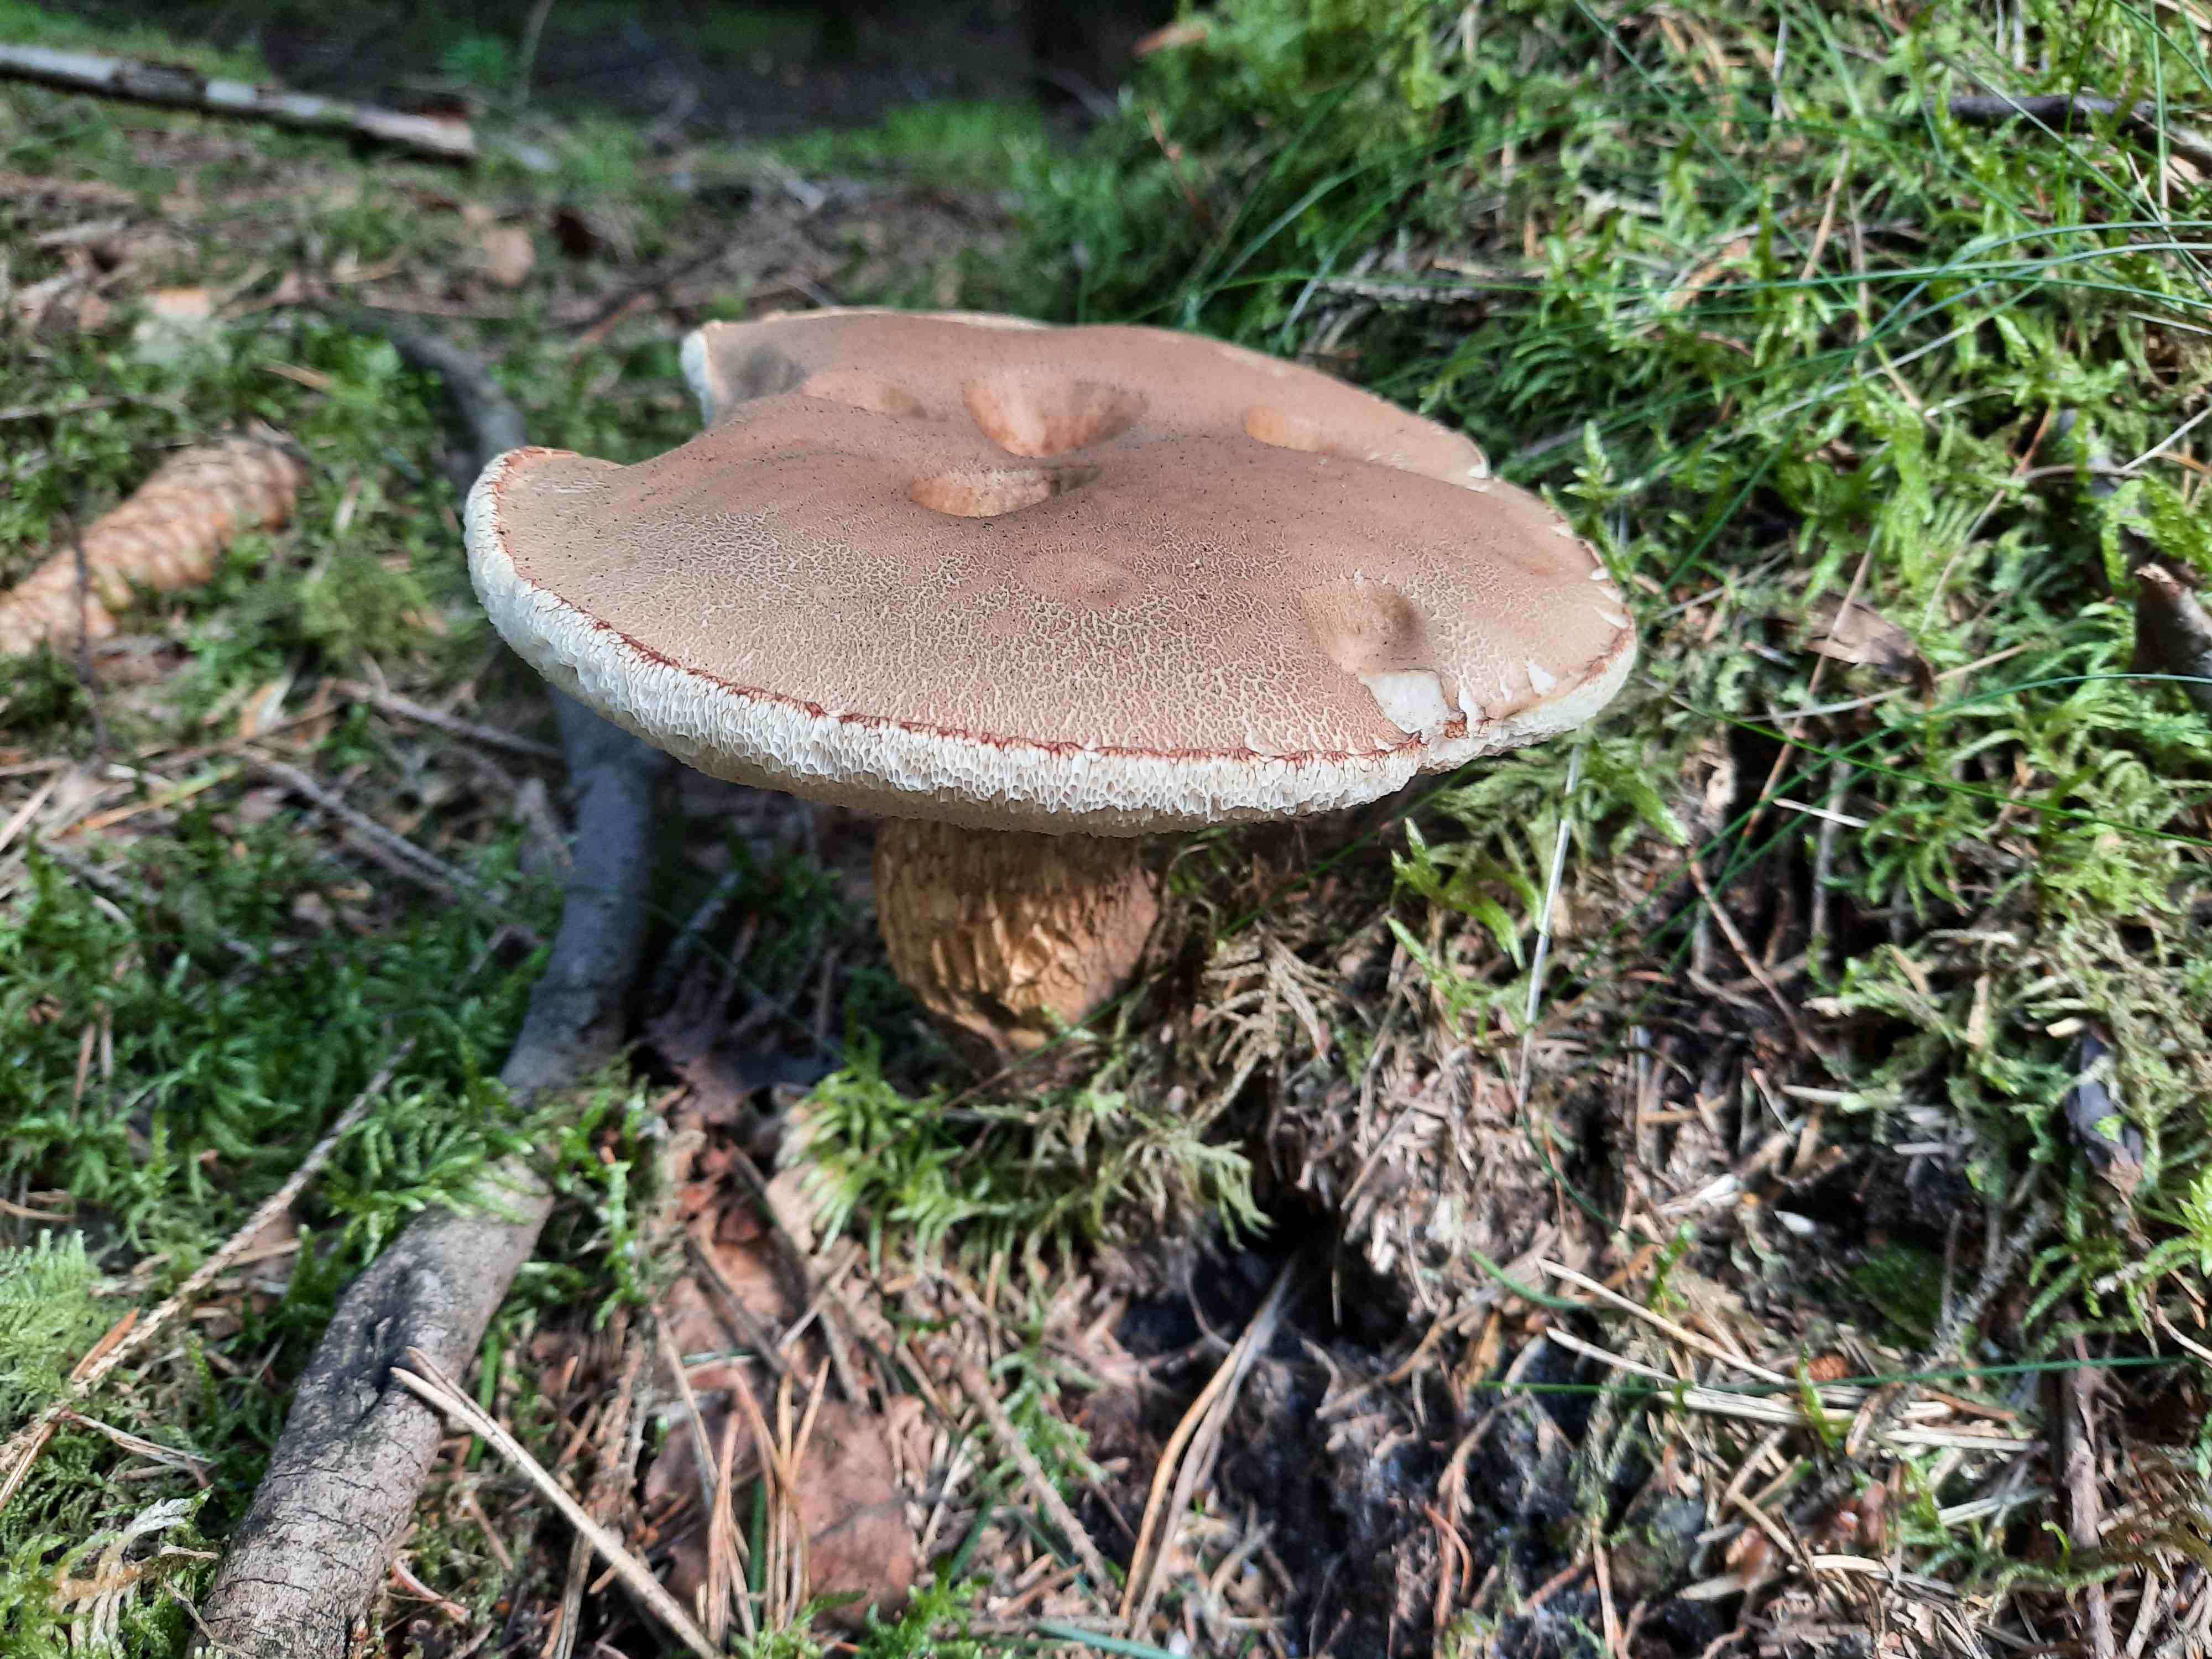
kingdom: Fungi
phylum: Basidiomycota
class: Agaricomycetes
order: Boletales
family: Boletaceae
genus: Tylopilus
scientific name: Tylopilus felleus
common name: galderørhat
